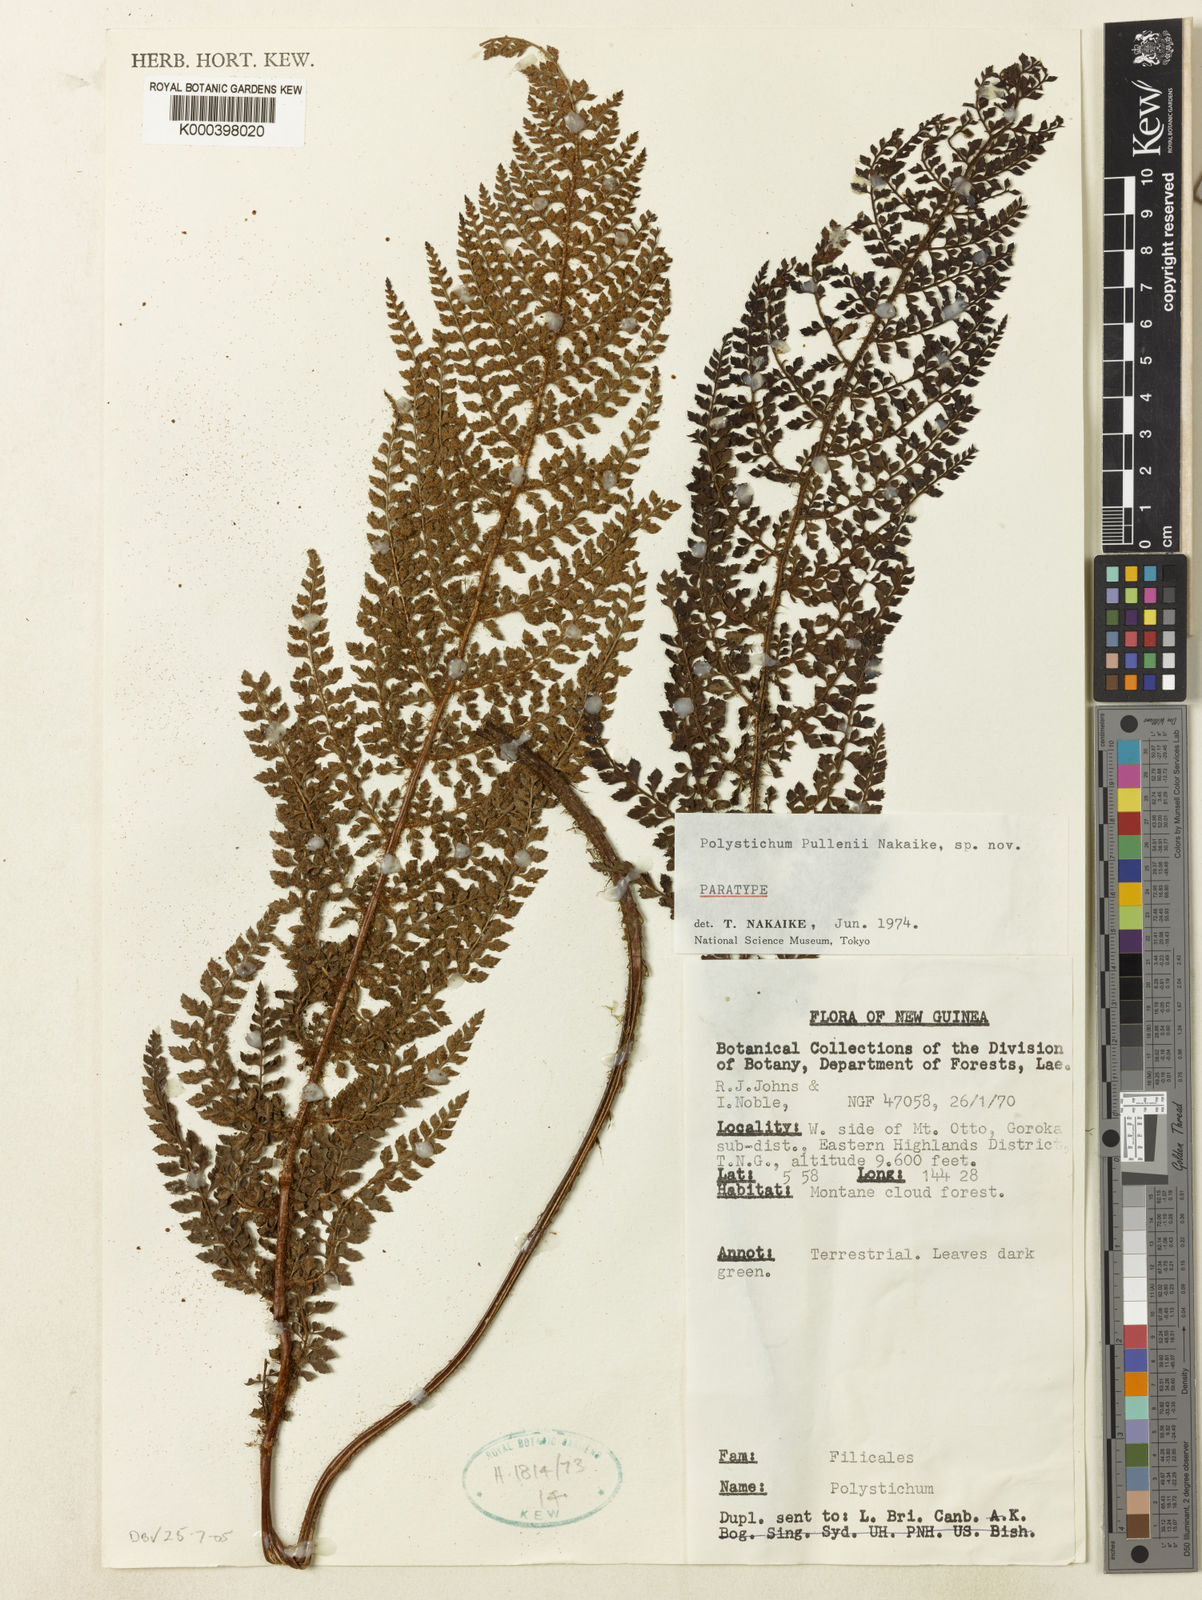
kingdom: Plantae
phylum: Tracheophyta
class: Polypodiopsida
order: Polypodiales
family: Dryopteridaceae
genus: Polystichum
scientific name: Polystichum bamlerianum
